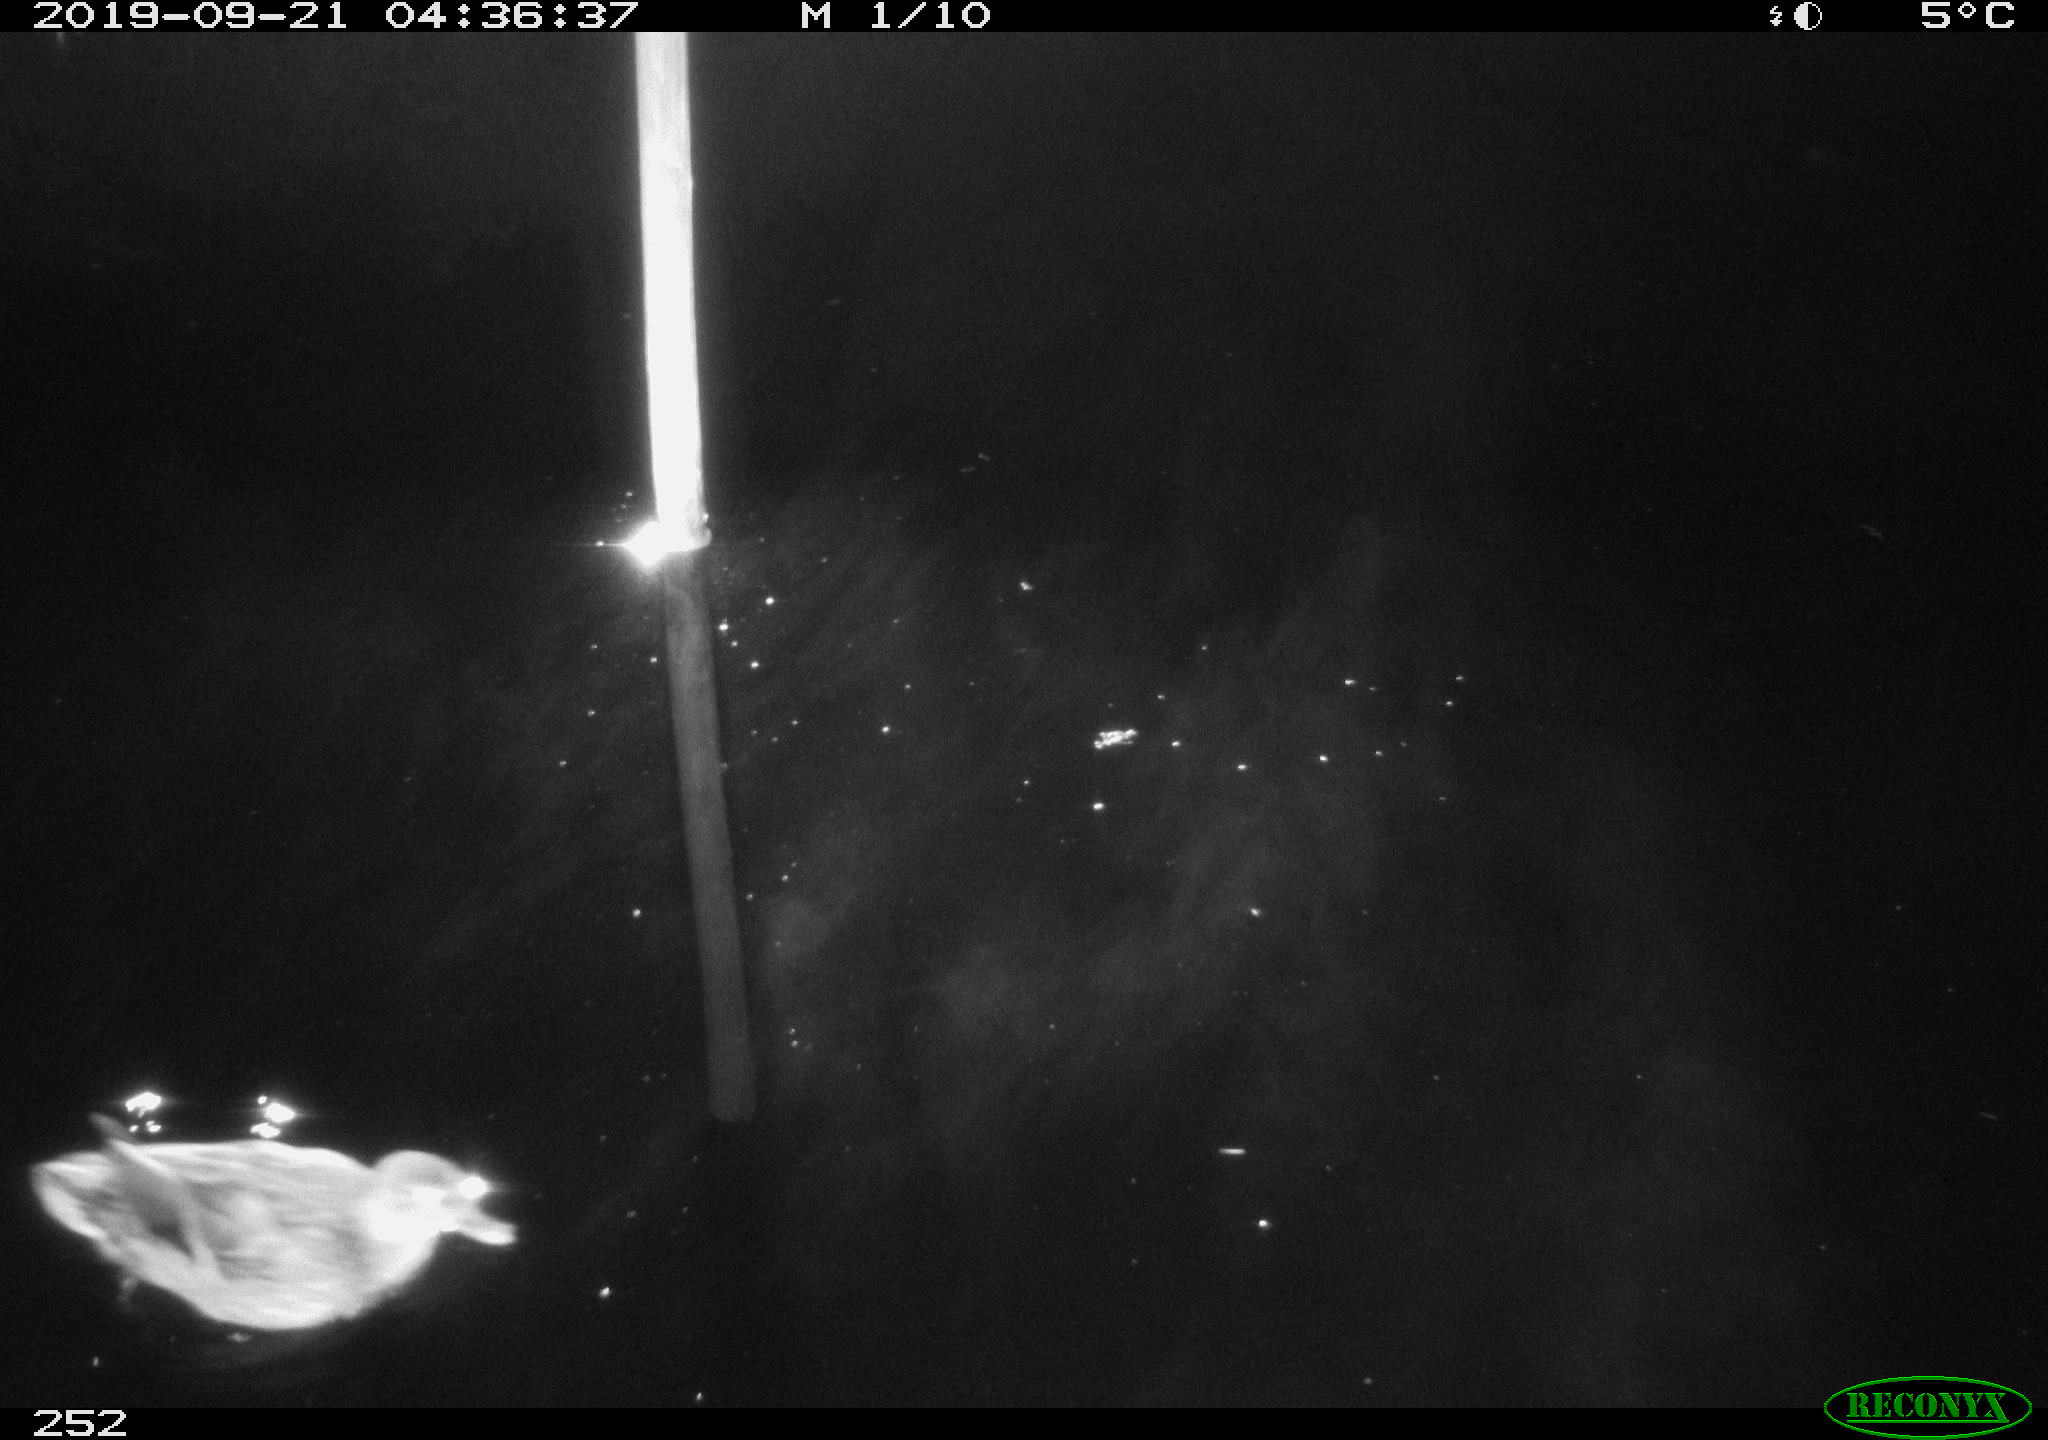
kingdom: Animalia
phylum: Chordata
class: Aves
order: Anseriformes
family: Anatidae
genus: Anas
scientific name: Anas platyrhynchos
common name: Mallard
